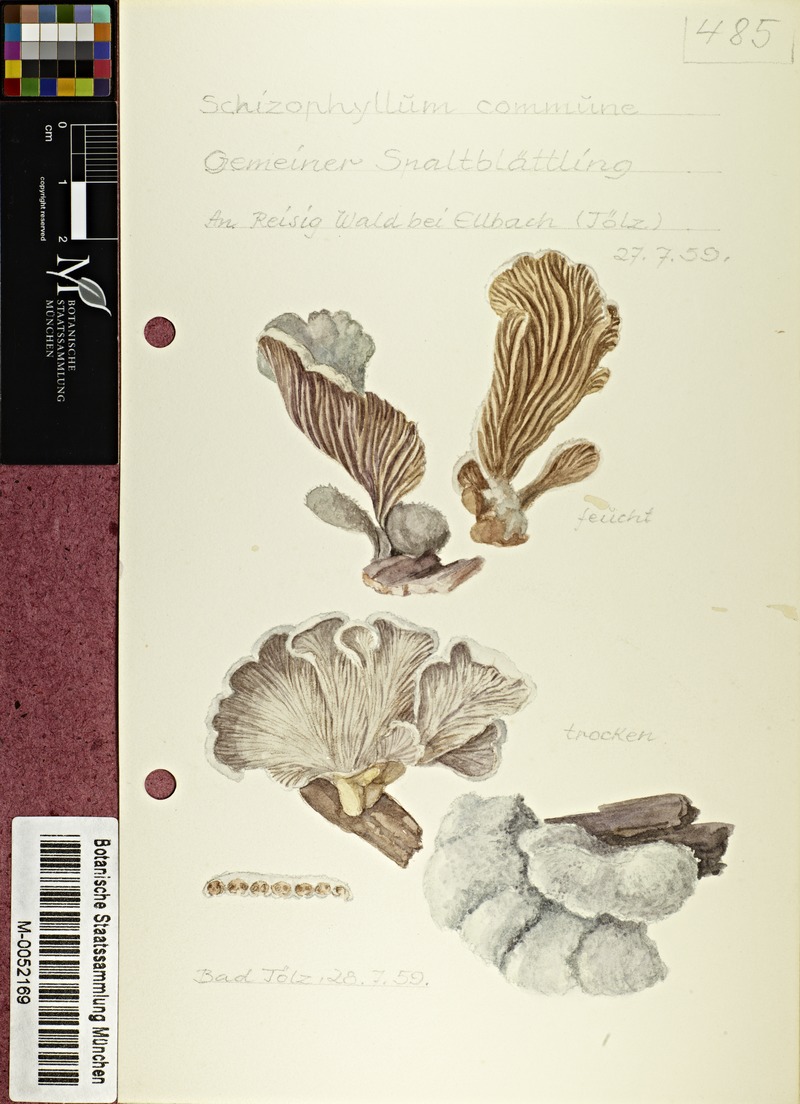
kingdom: Fungi
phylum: Basidiomycota
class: Agaricomycetes
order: Agaricales
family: Schizophyllaceae
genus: Schizophyllum
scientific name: Schizophyllum commune
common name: Common porecrust
